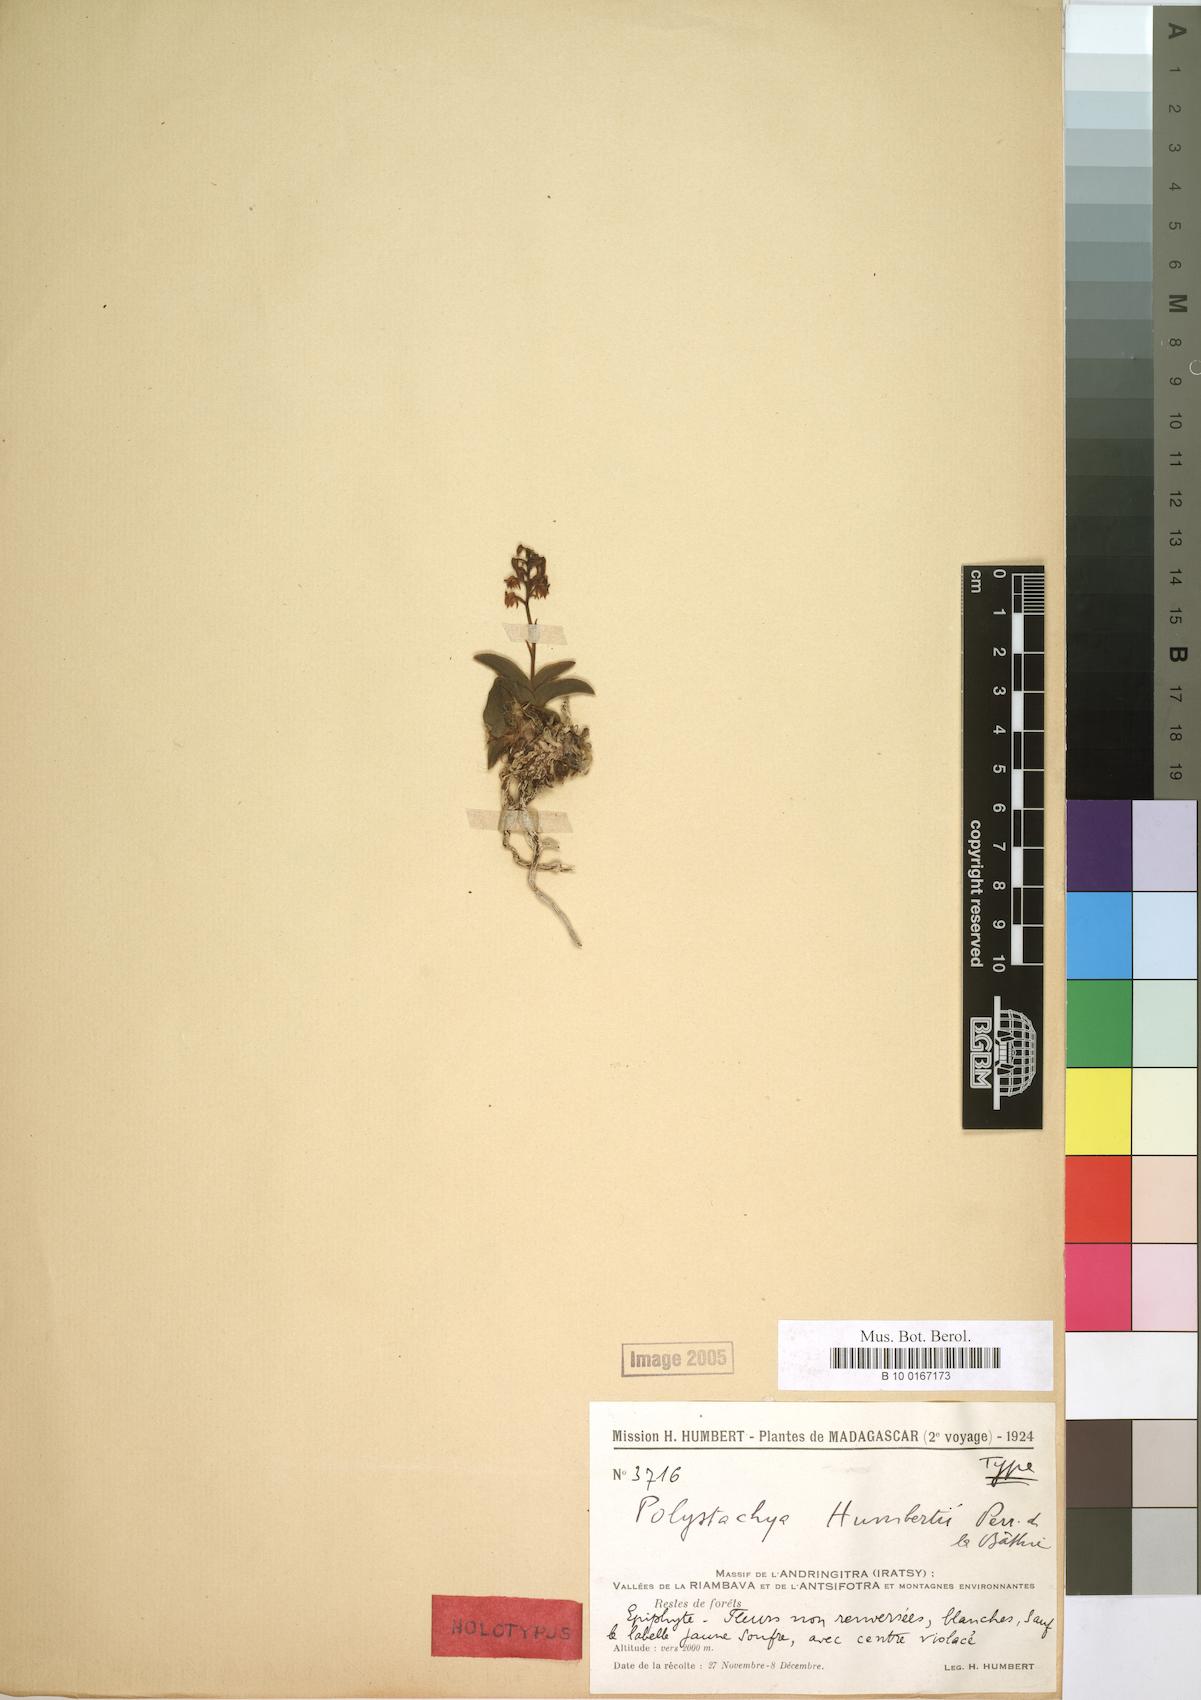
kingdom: Plantae
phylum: Tracheophyta
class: Liliopsida
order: Asparagales
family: Orchidaceae
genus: Polystachya
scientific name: Polystachya humbertii
